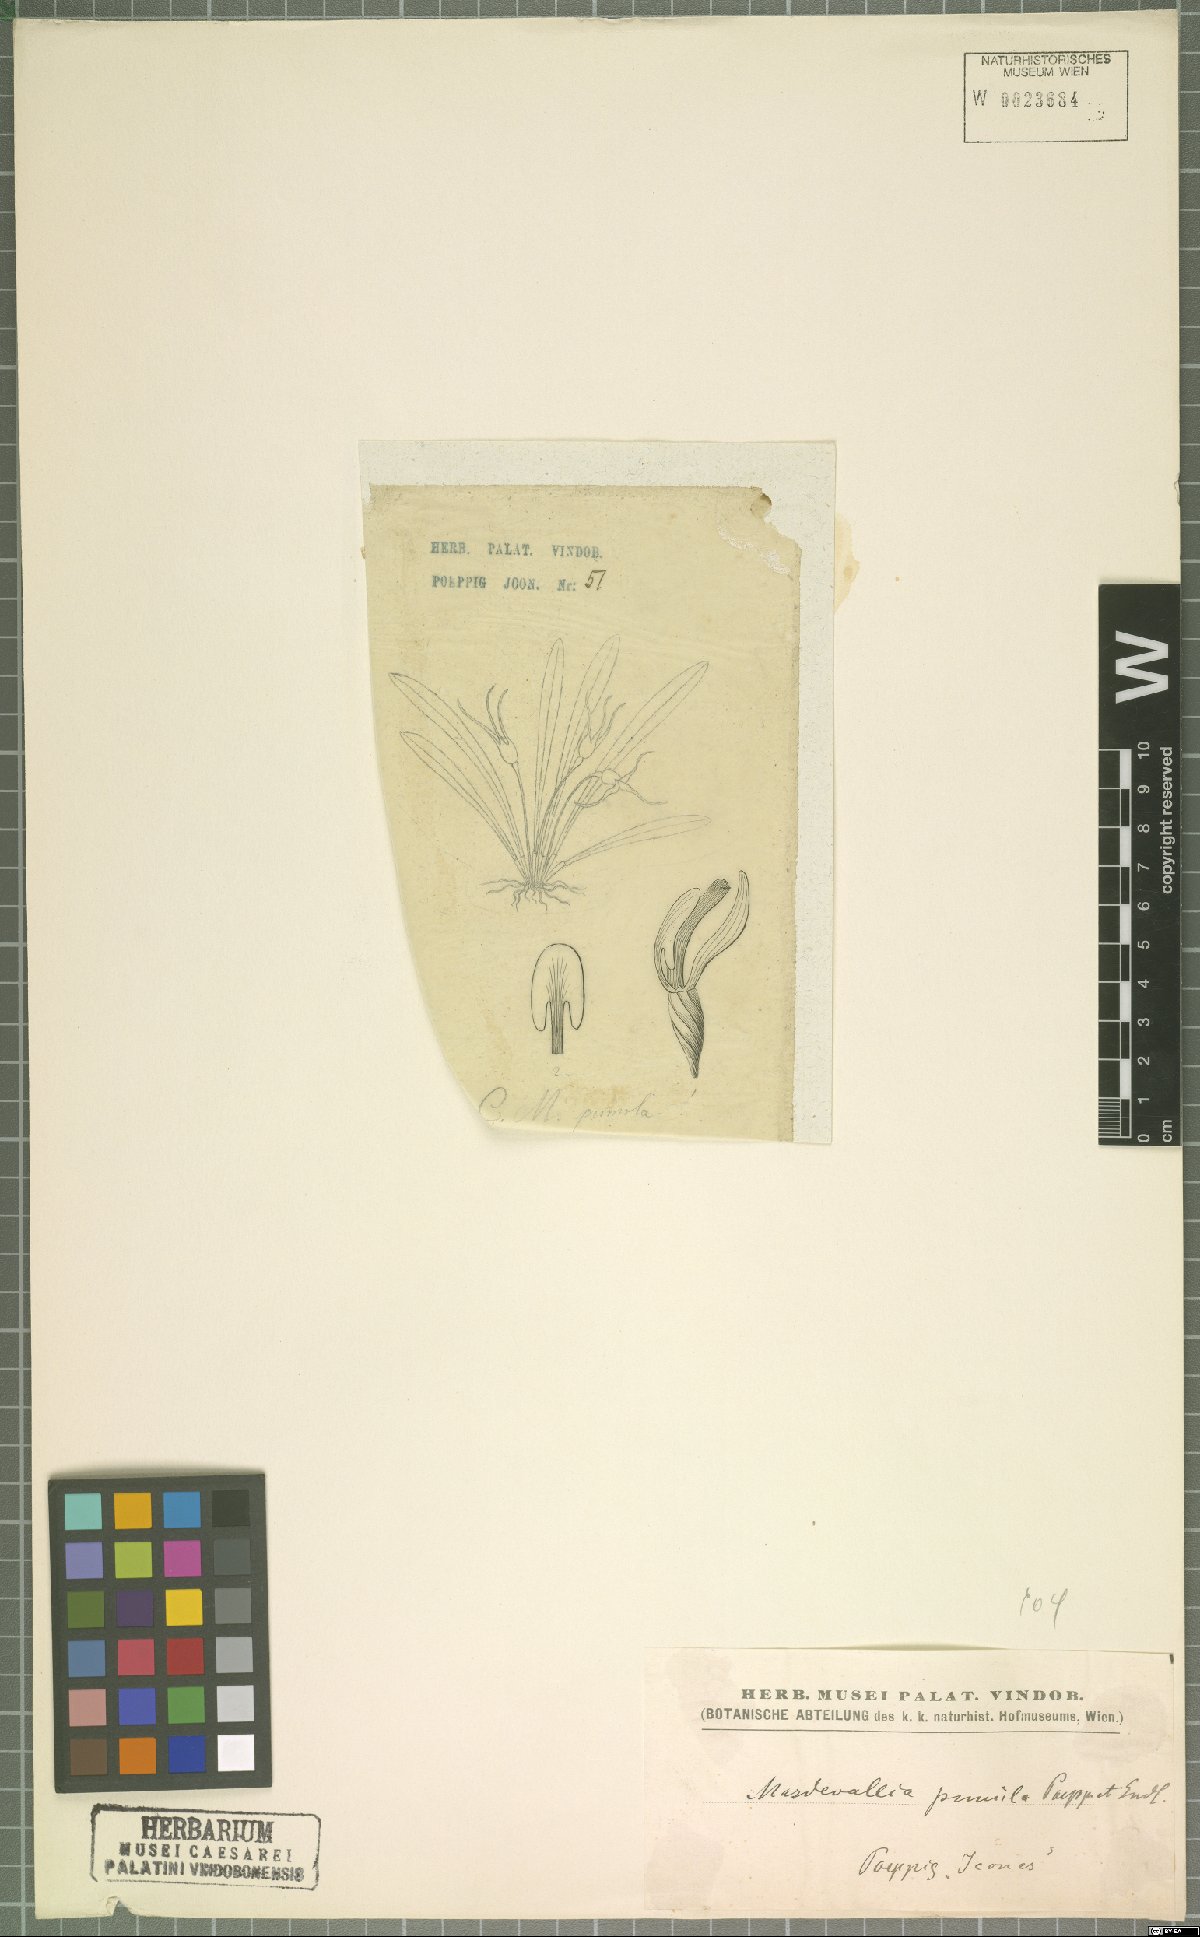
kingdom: Plantae
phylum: Tracheophyta
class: Liliopsida
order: Asparagales
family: Orchidaceae
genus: Masdevallia
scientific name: Masdevallia pumila
